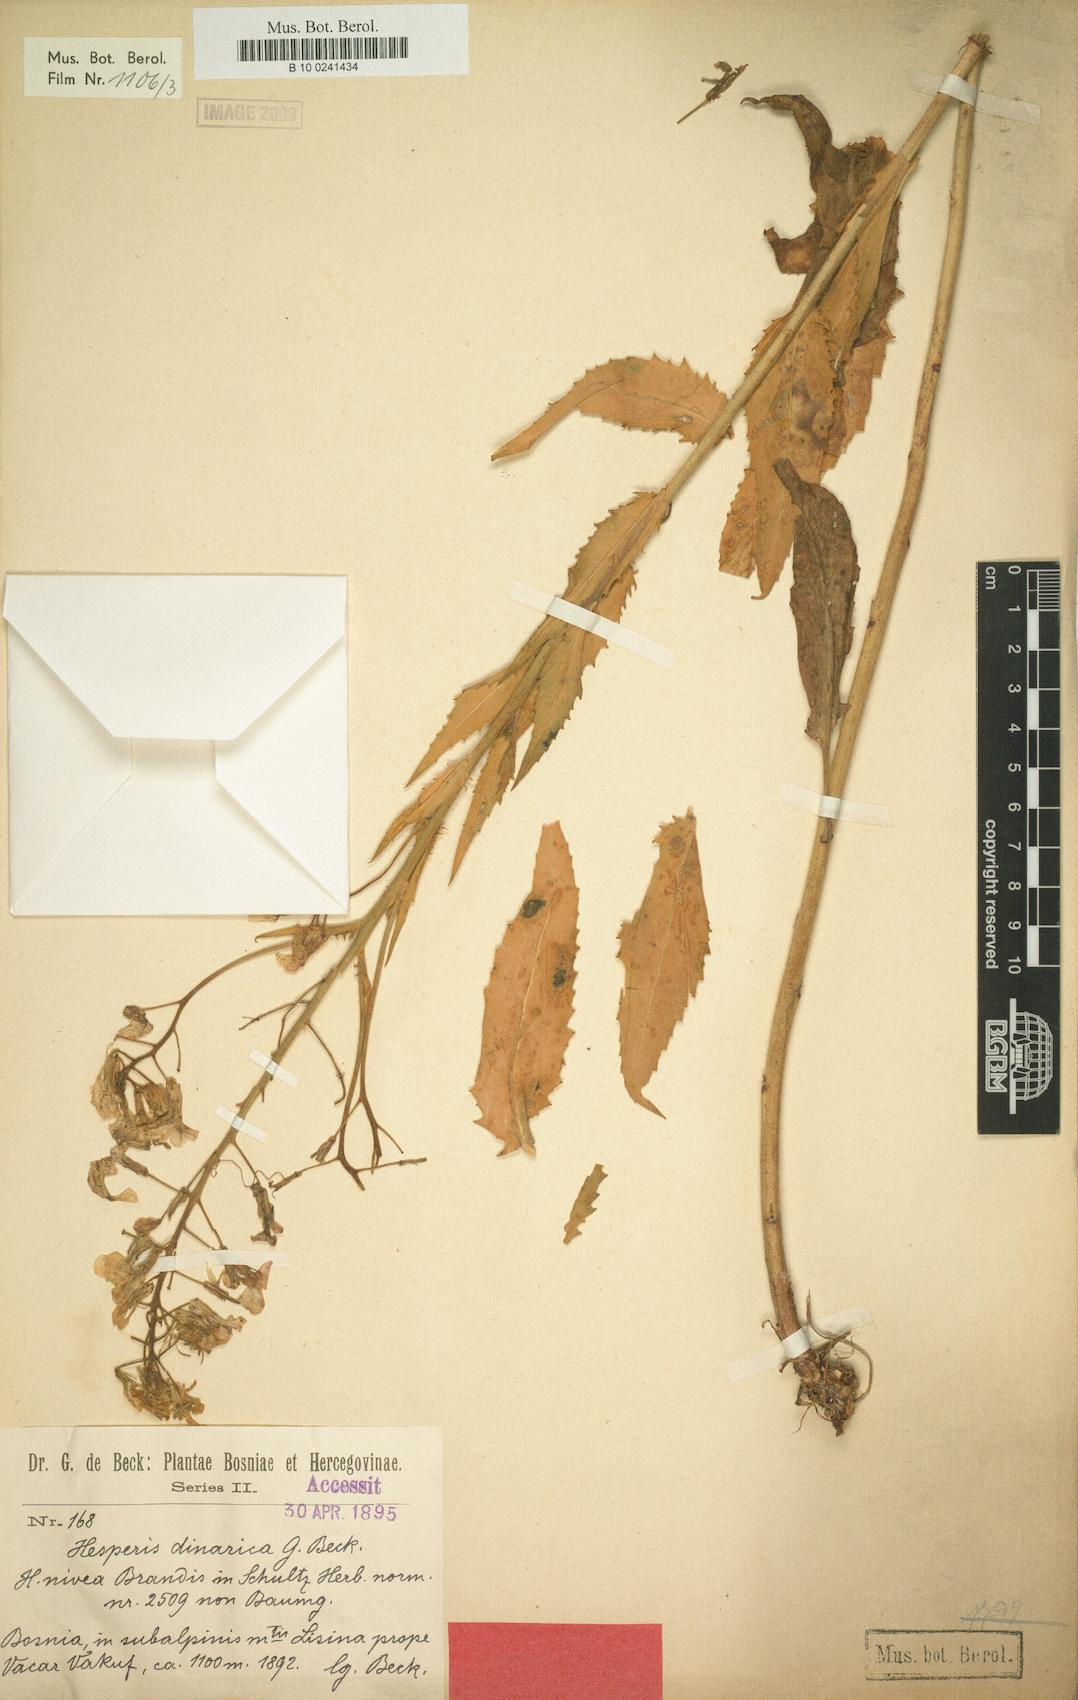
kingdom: Plantae
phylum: Tracheophyta
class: Magnoliopsida
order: Brassicales
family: Brassicaceae
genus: Hesperis
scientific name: Hesperis dinarica
